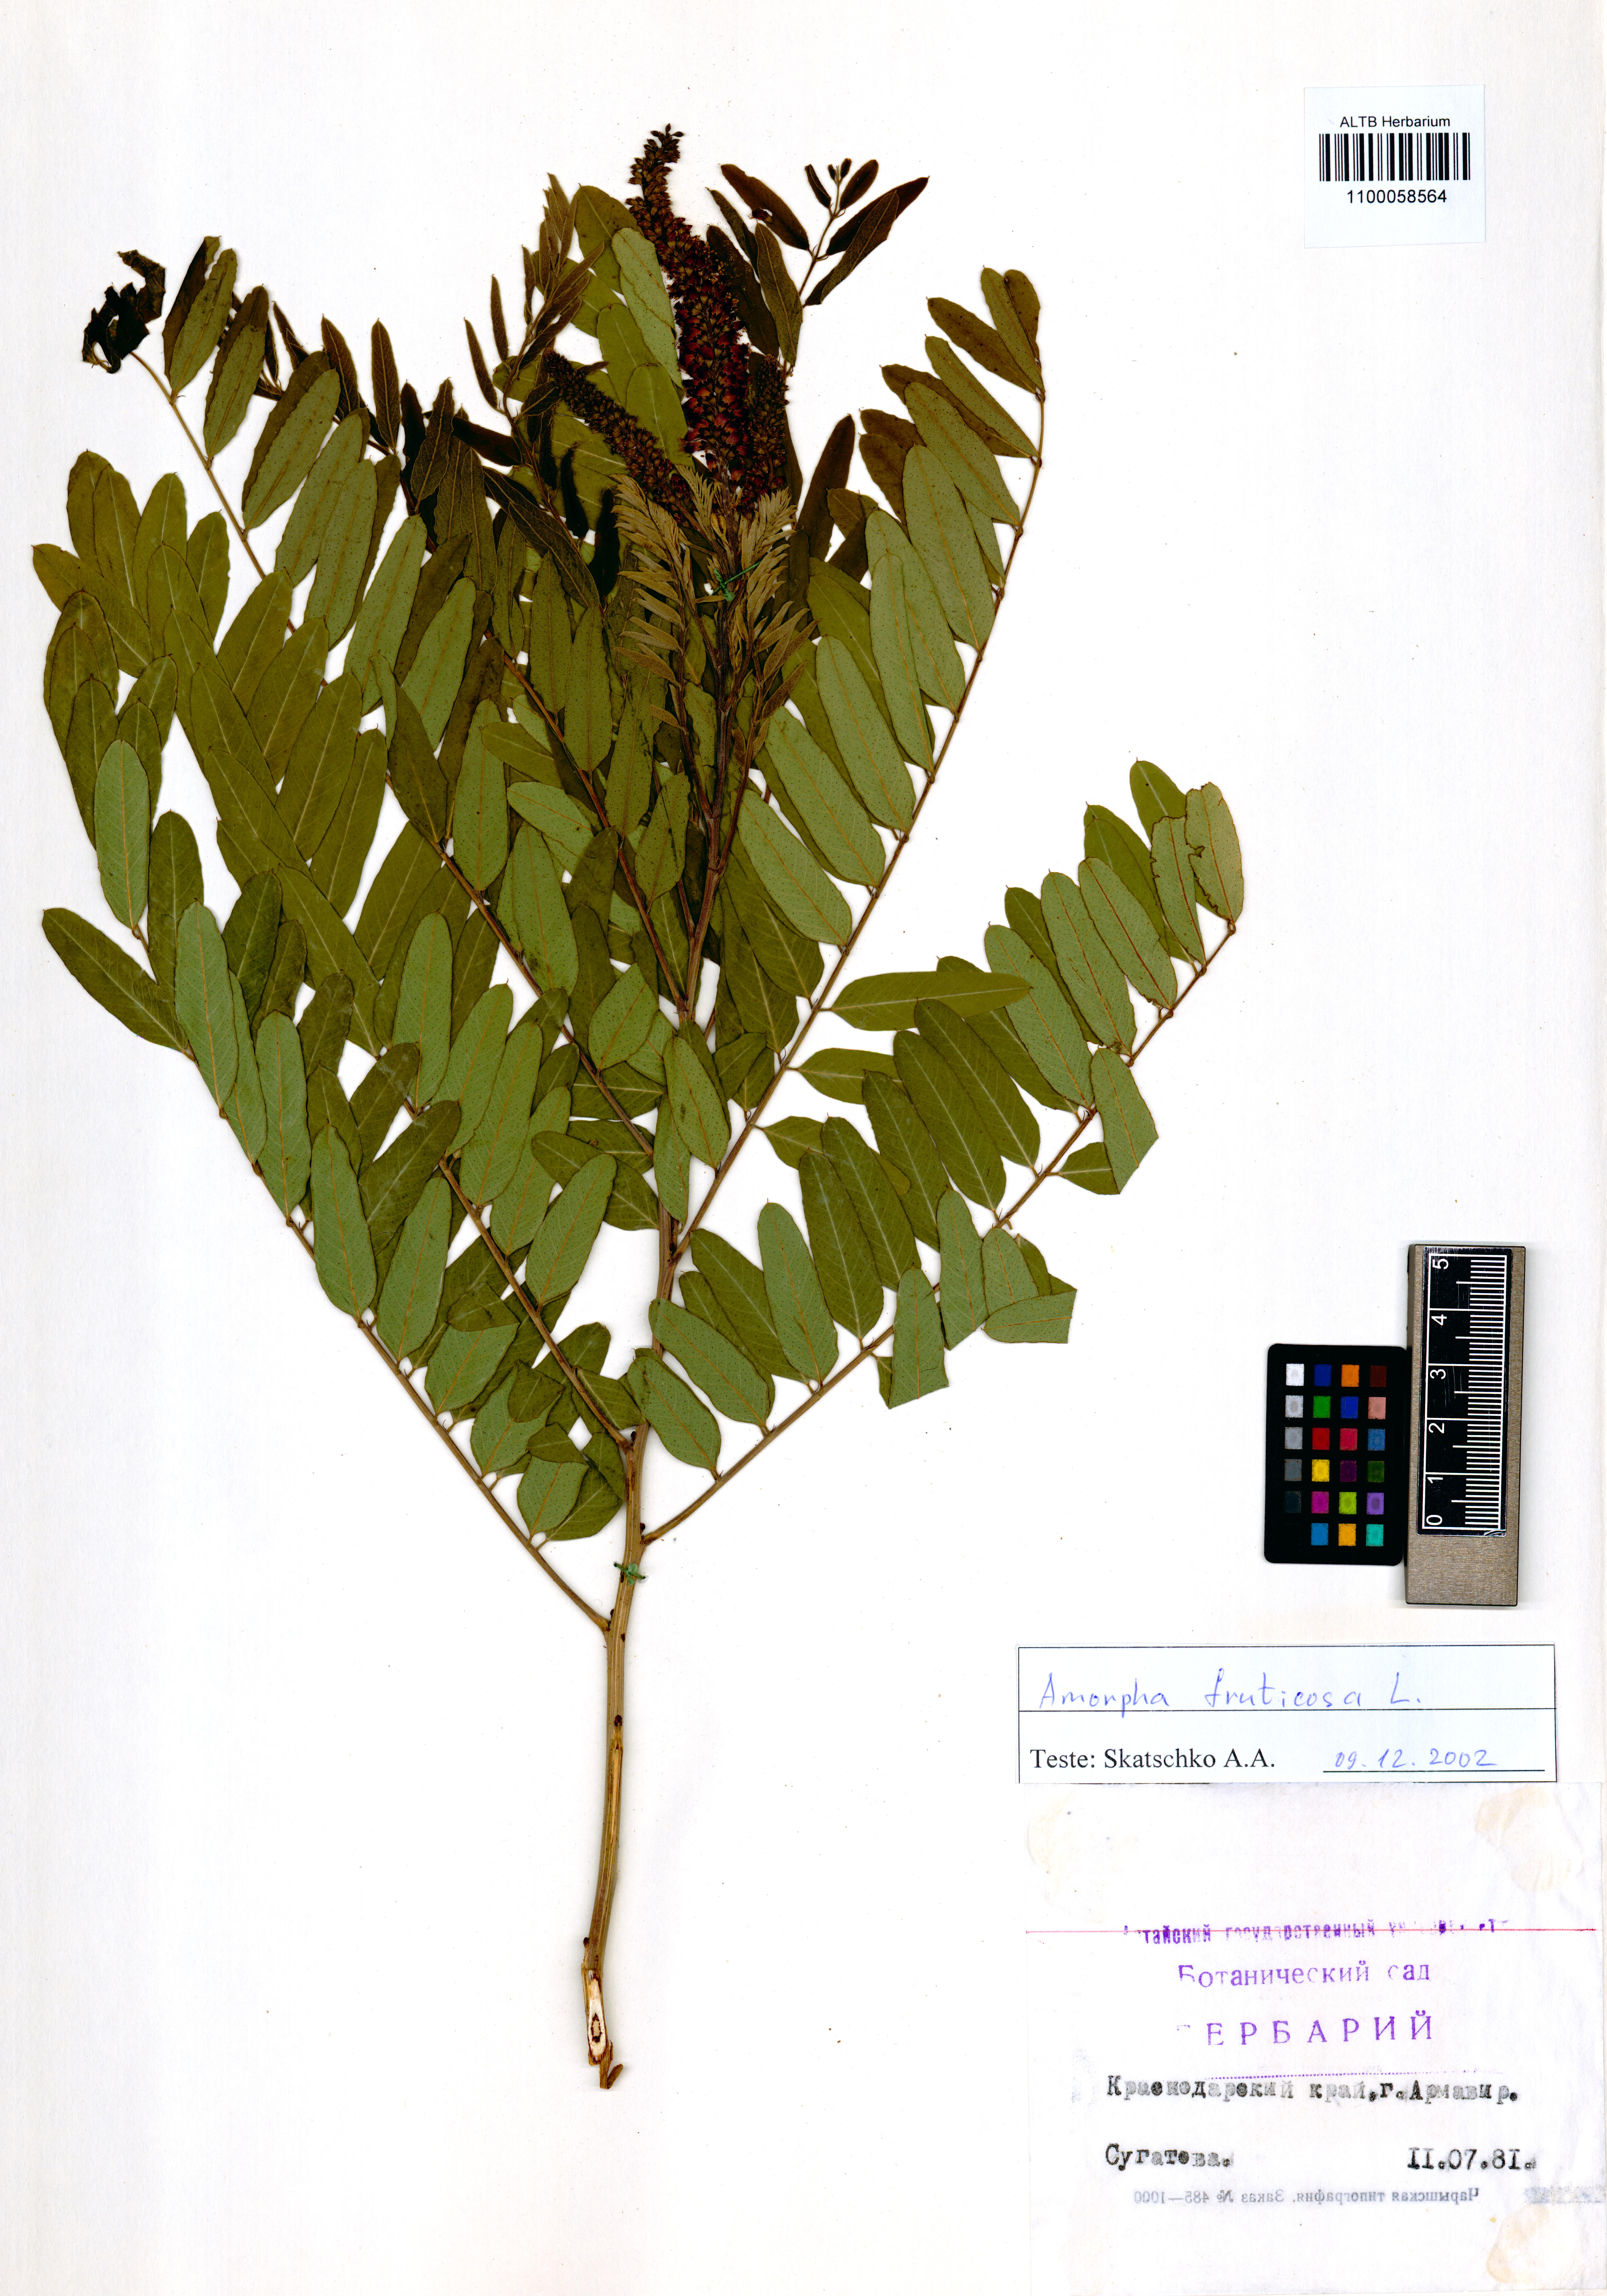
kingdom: Plantae
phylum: Tracheophyta
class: Magnoliopsida
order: Fabales
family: Fabaceae
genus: Amorpha
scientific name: Amorpha fruticosa
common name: False indigo
